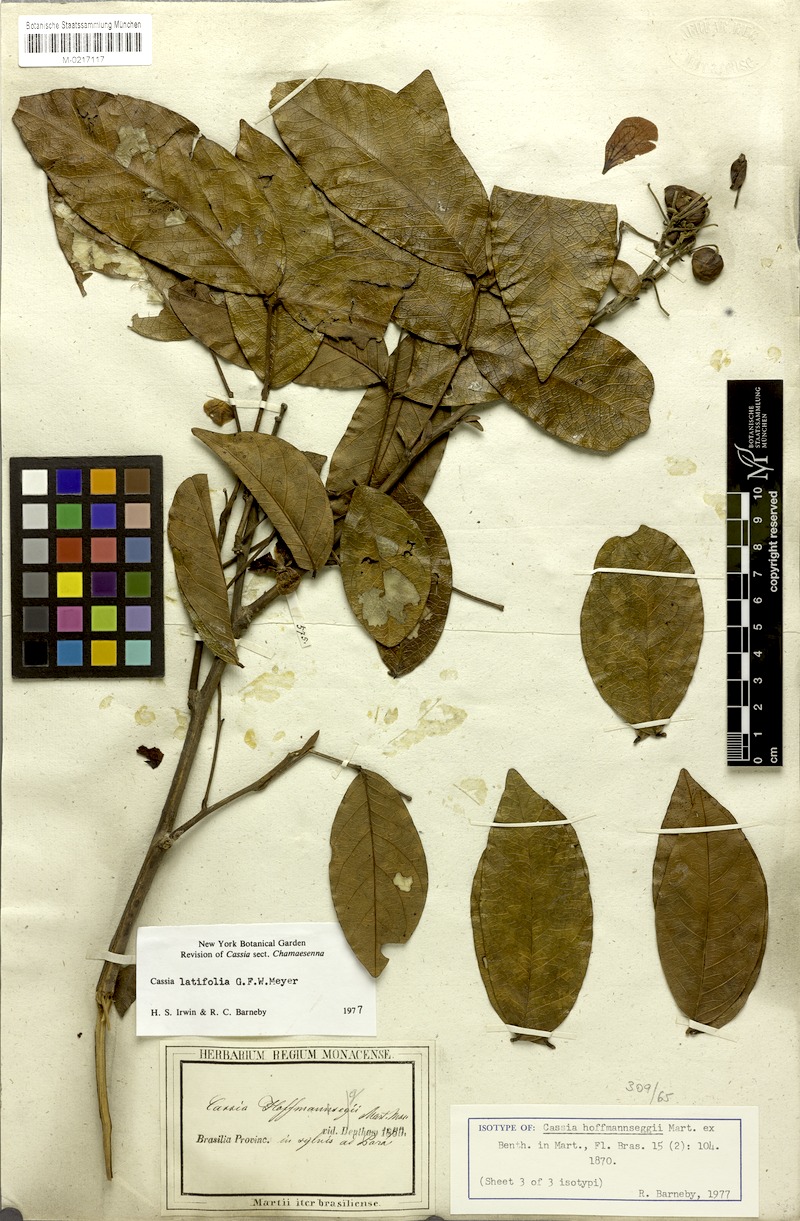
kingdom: Plantae
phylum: Tracheophyta
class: Magnoliopsida
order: Fabales
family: Fabaceae
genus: Senna
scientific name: Senna latifolia
